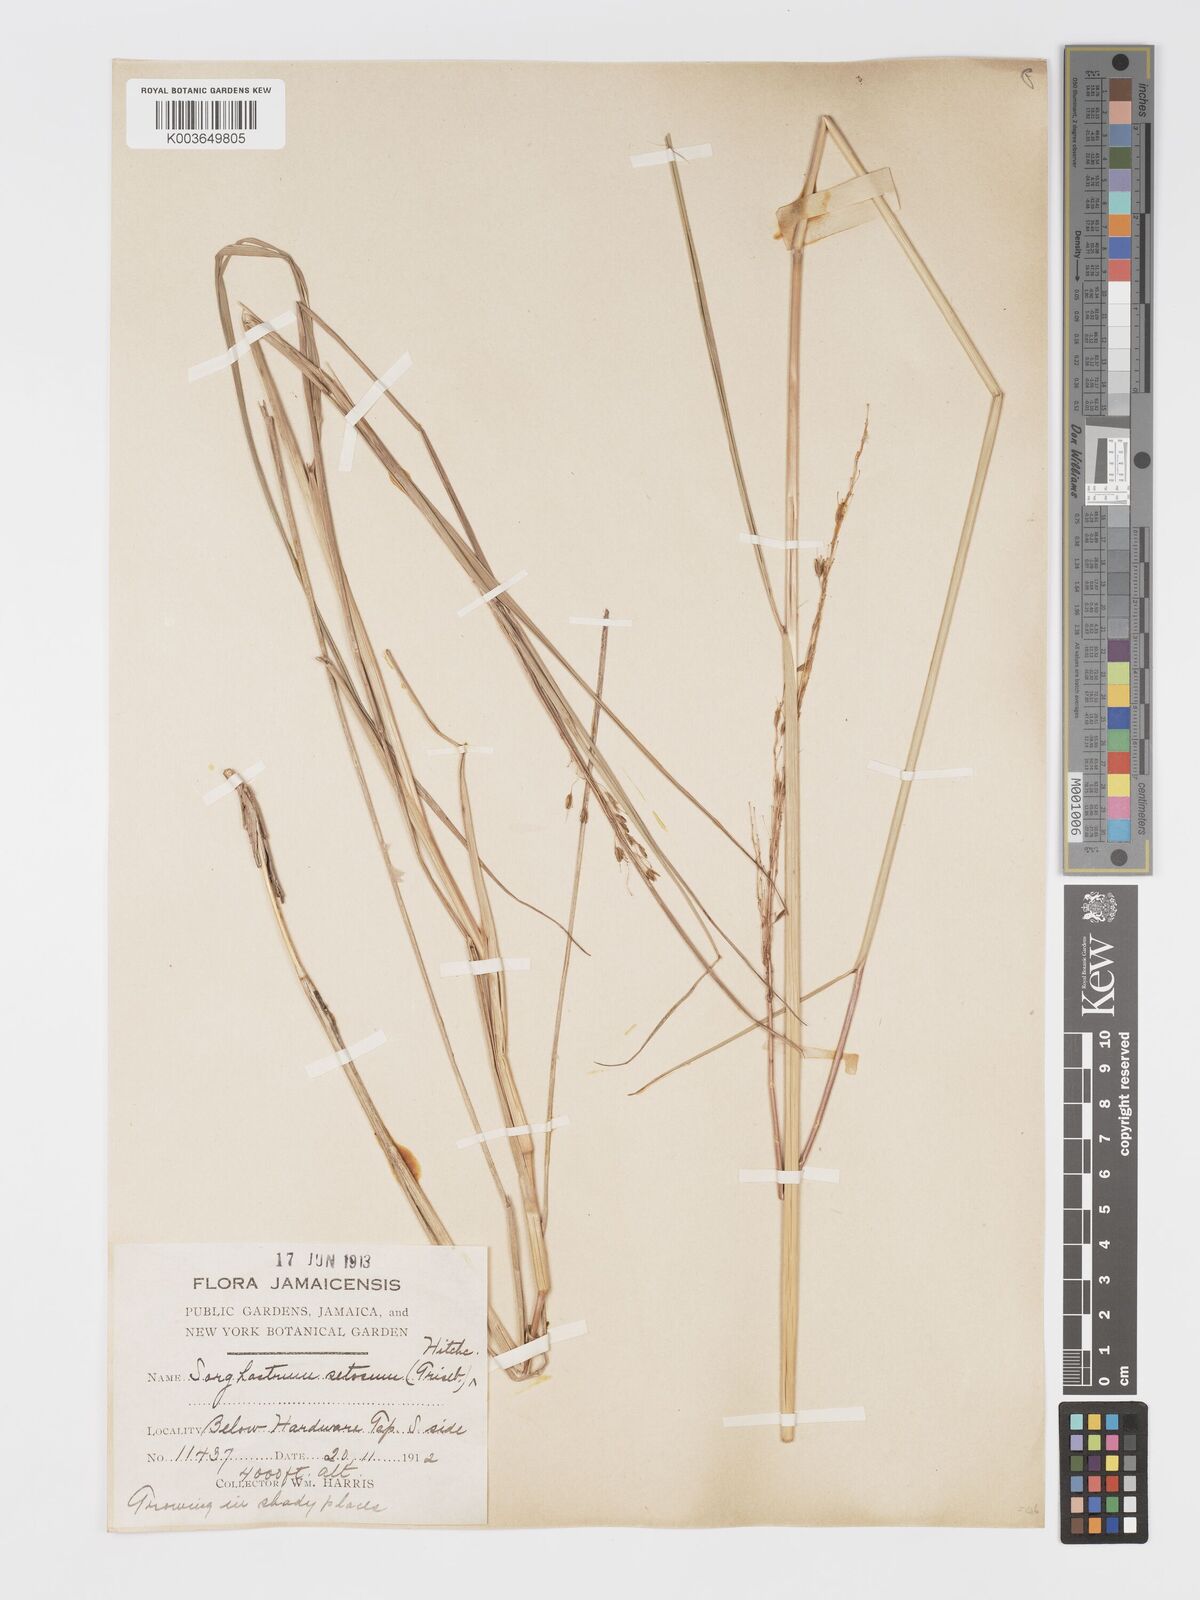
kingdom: Plantae
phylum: Tracheophyta
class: Liliopsida
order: Poales
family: Poaceae
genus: Sorghastrum
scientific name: Sorghastrum setosum
